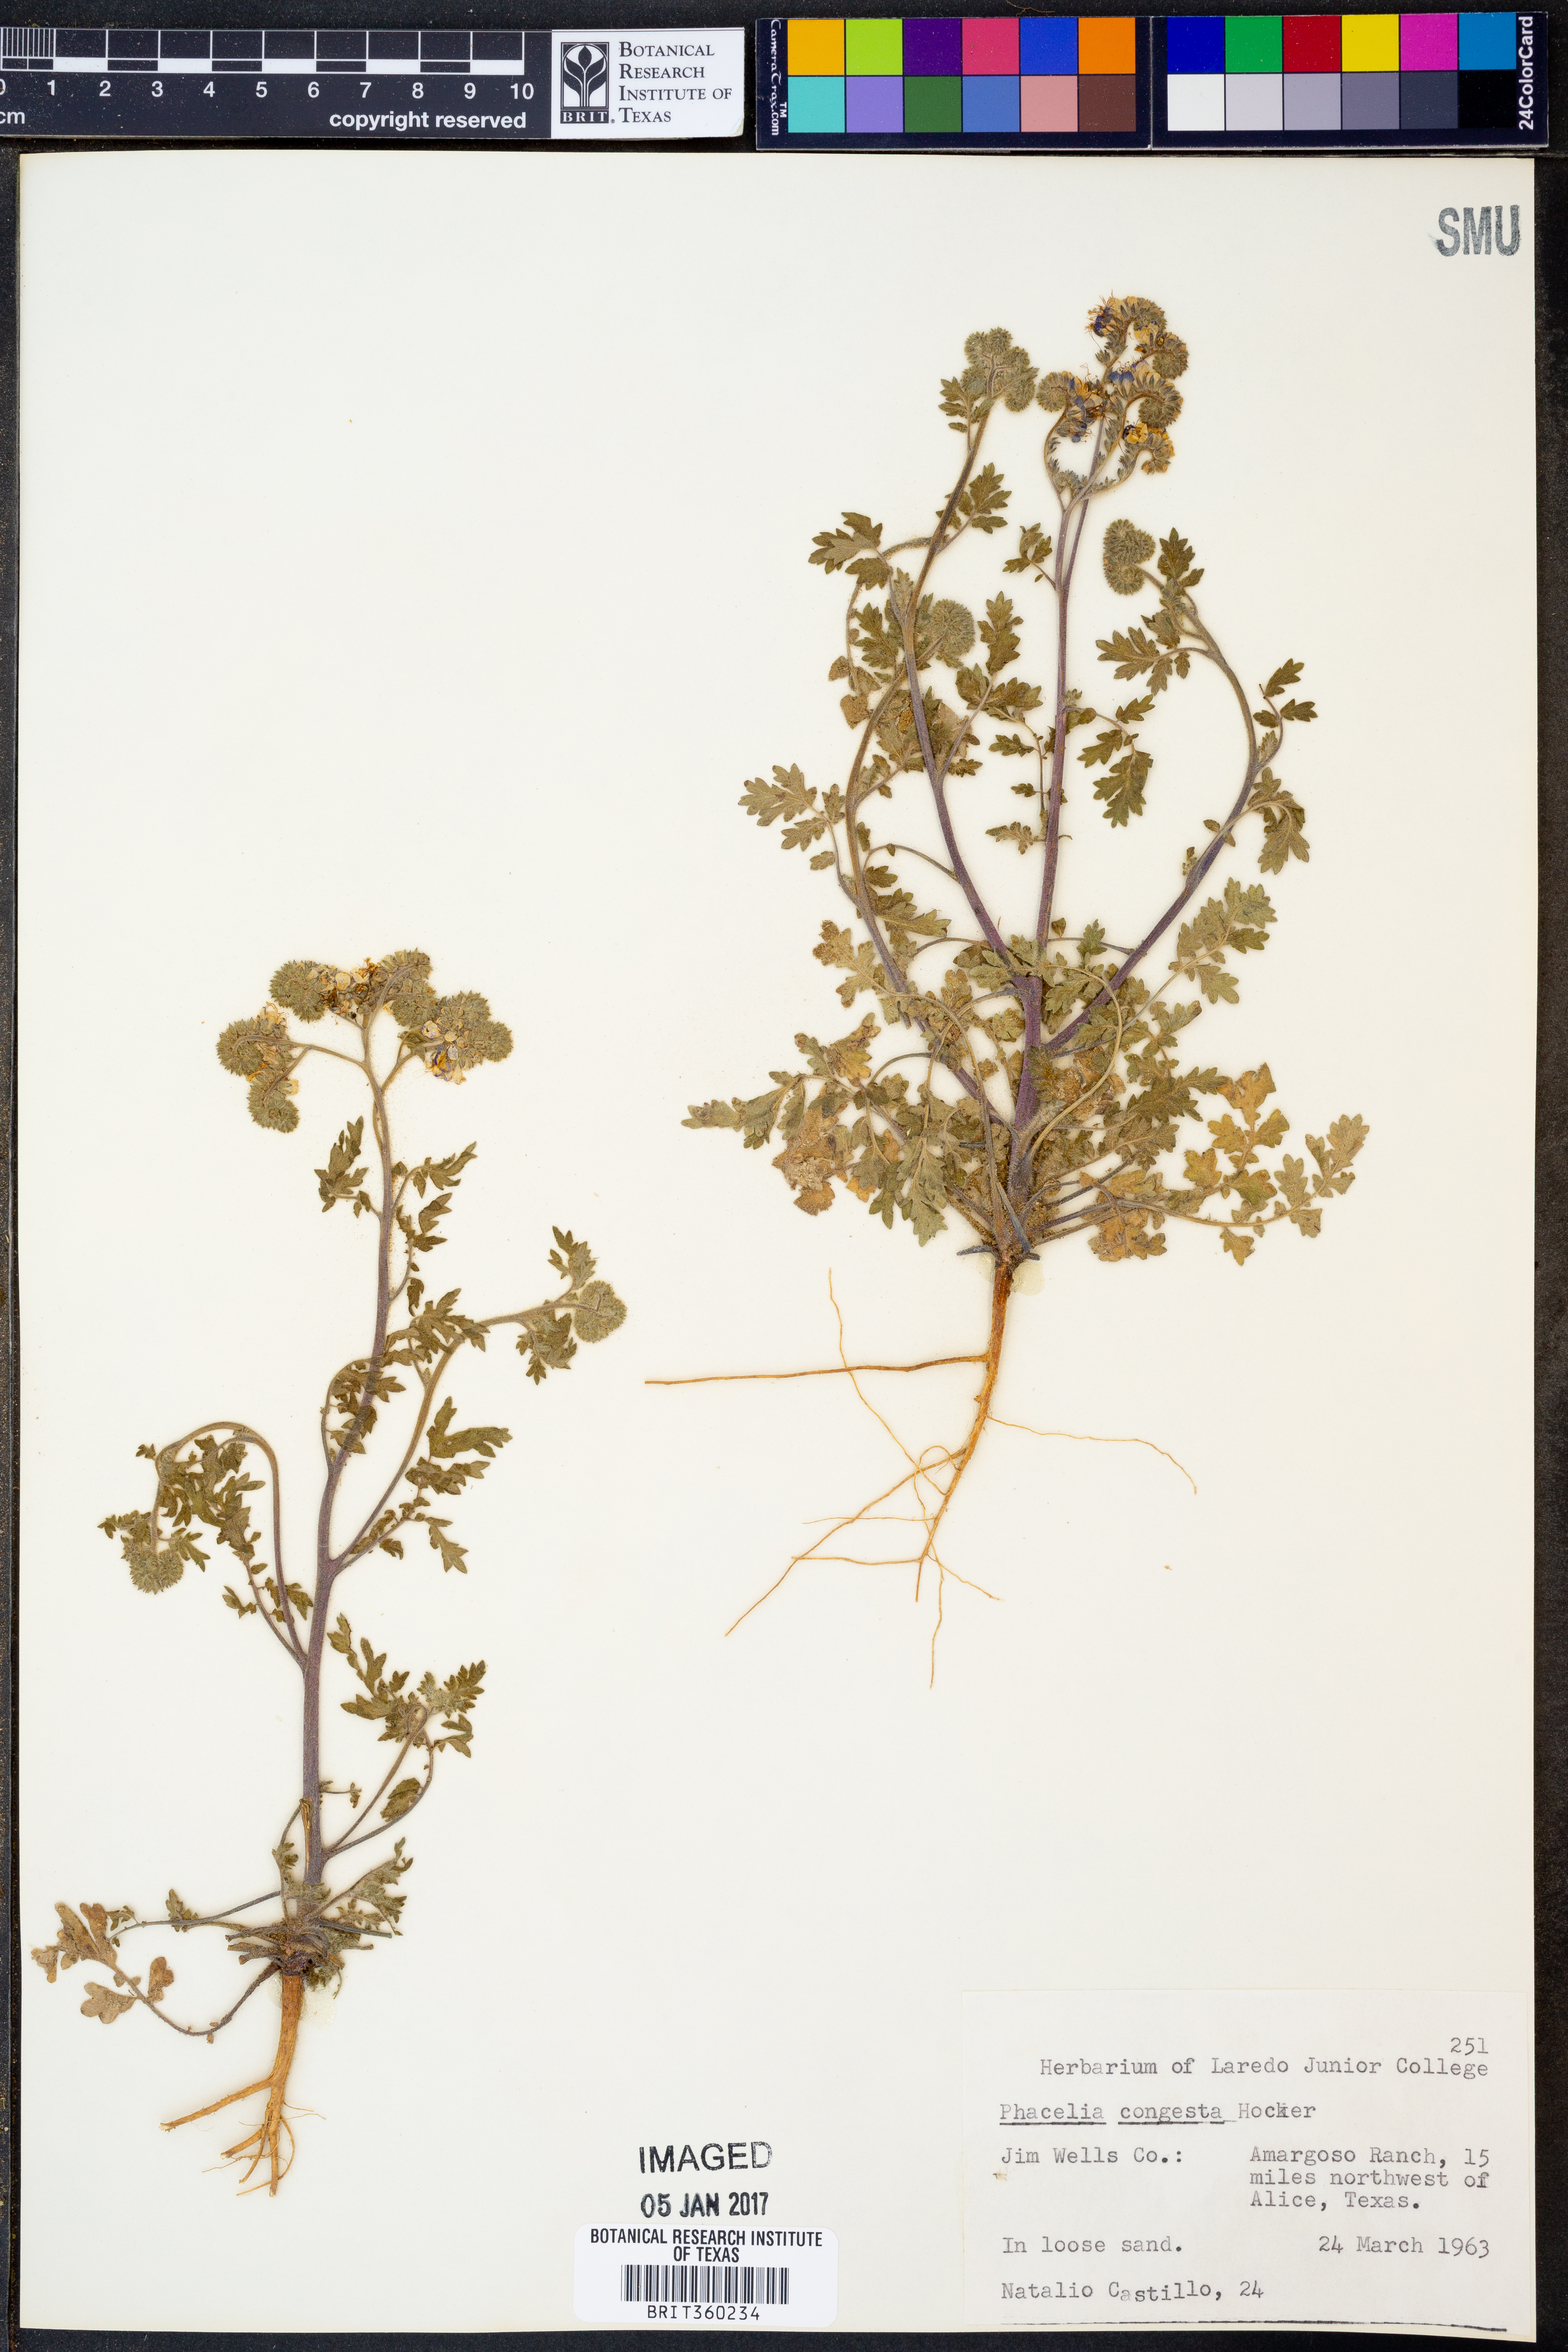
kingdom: Plantae
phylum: Tracheophyta
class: Magnoliopsida
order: Boraginales
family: Hydrophyllaceae
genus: Phacelia
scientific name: Phacelia congesta
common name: Blue curls
